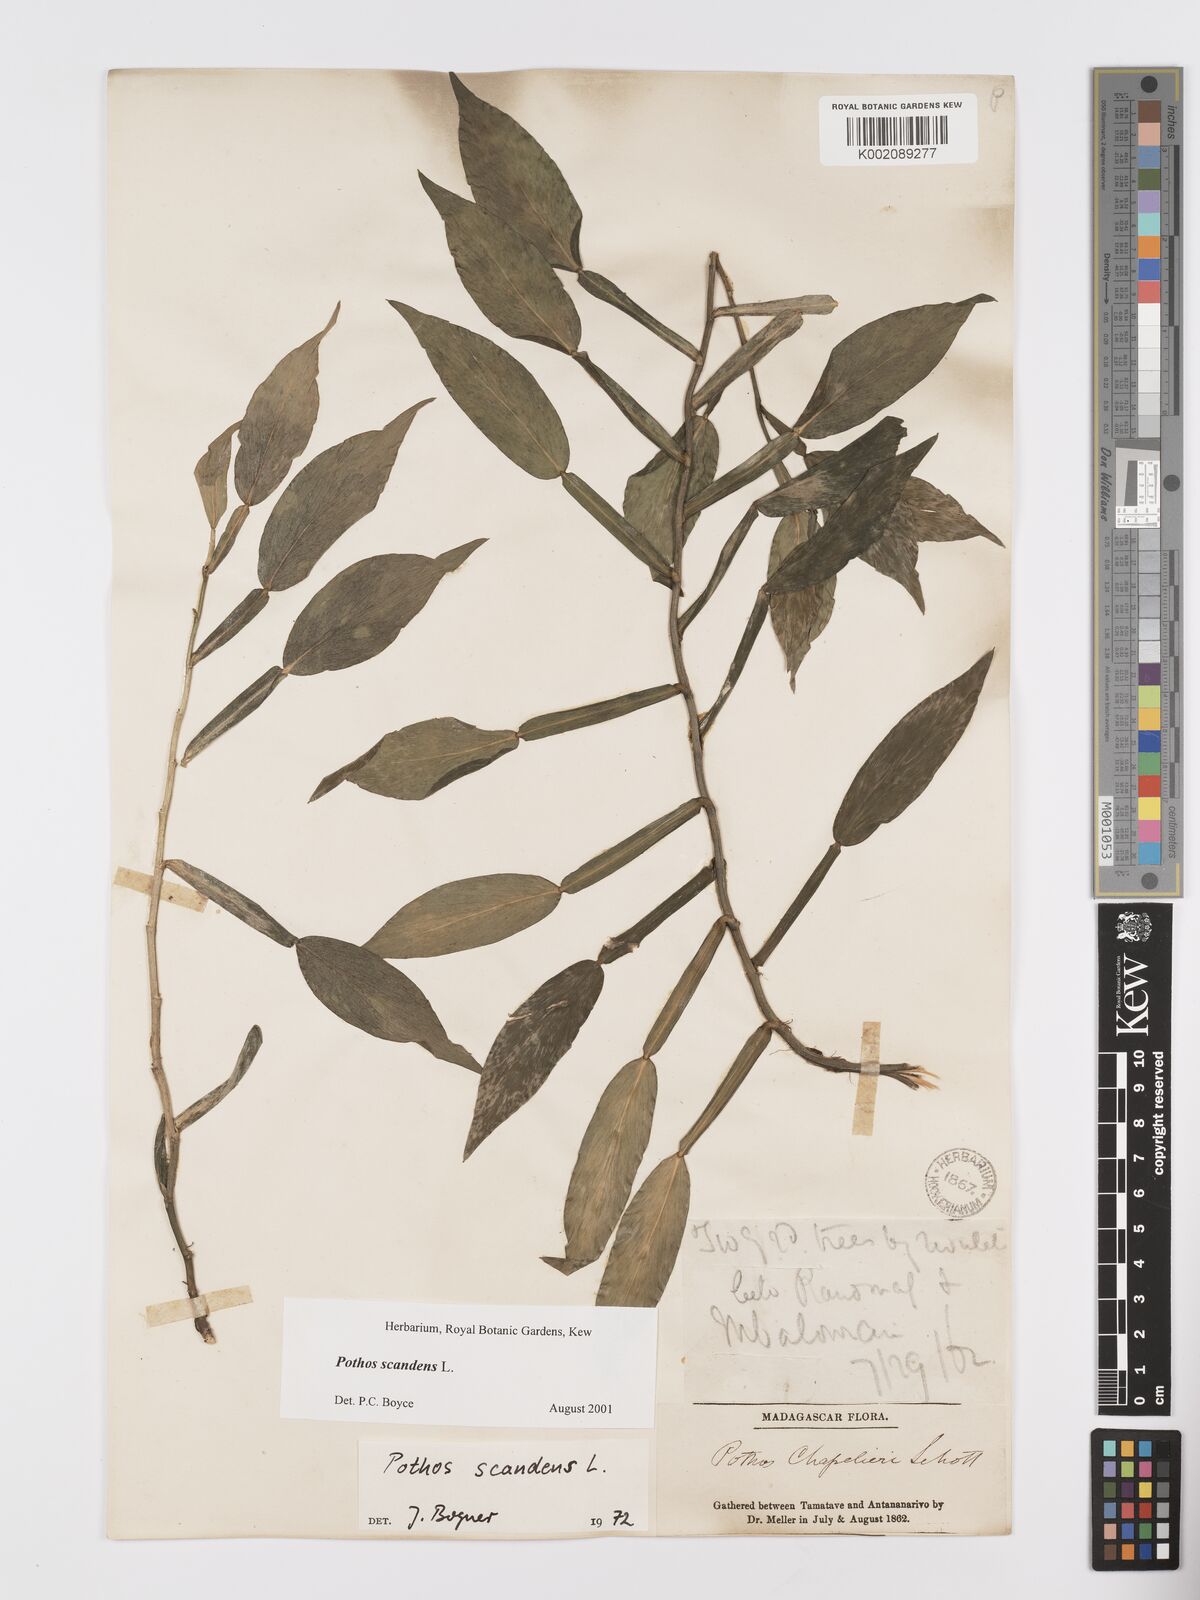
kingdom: Plantae
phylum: Tracheophyta
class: Liliopsida
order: Alismatales
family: Araceae
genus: Pothos
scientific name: Pothos scandens
